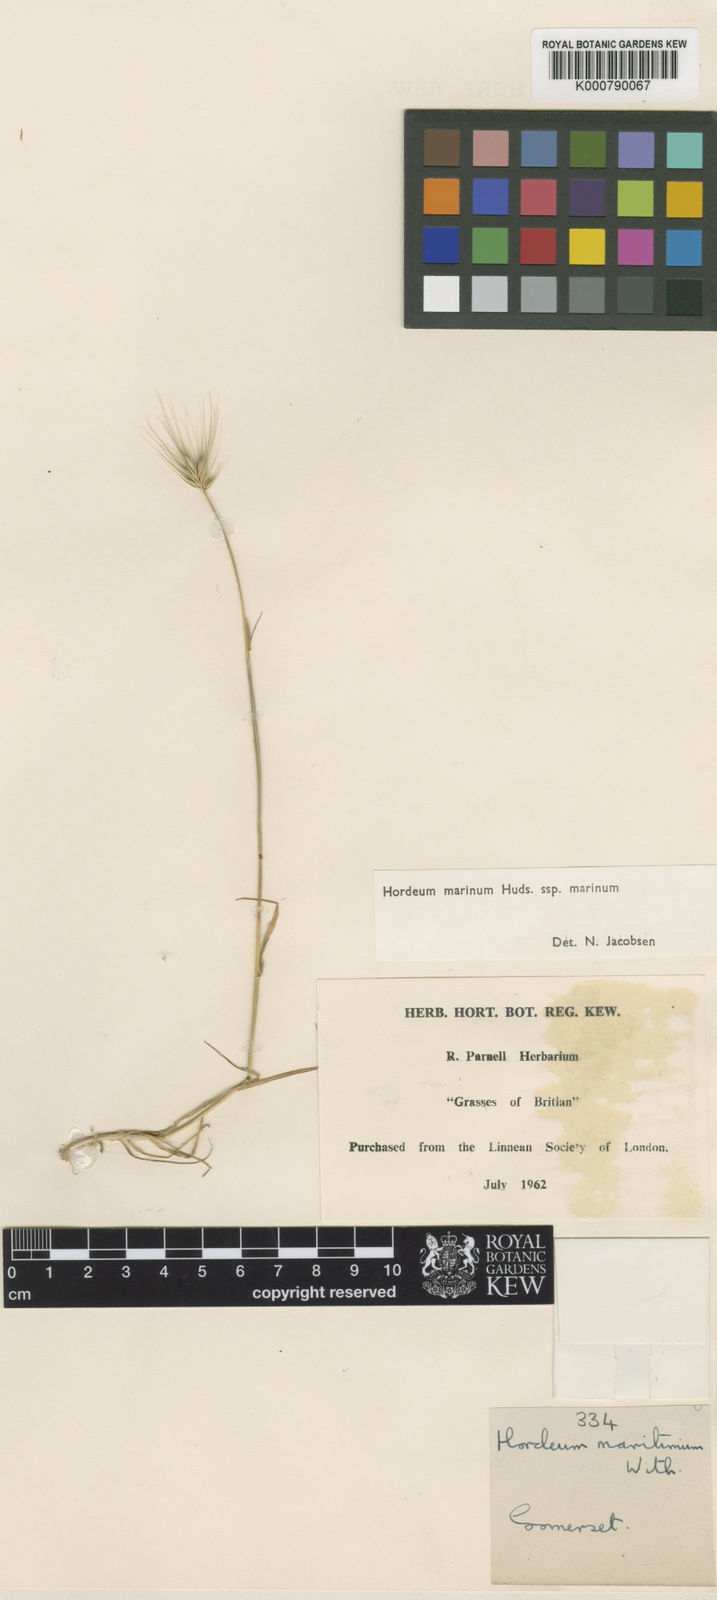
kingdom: Plantae
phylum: Tracheophyta
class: Liliopsida
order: Poales
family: Poaceae
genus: Hordeum
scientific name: Hordeum marinum
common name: Sea barley
